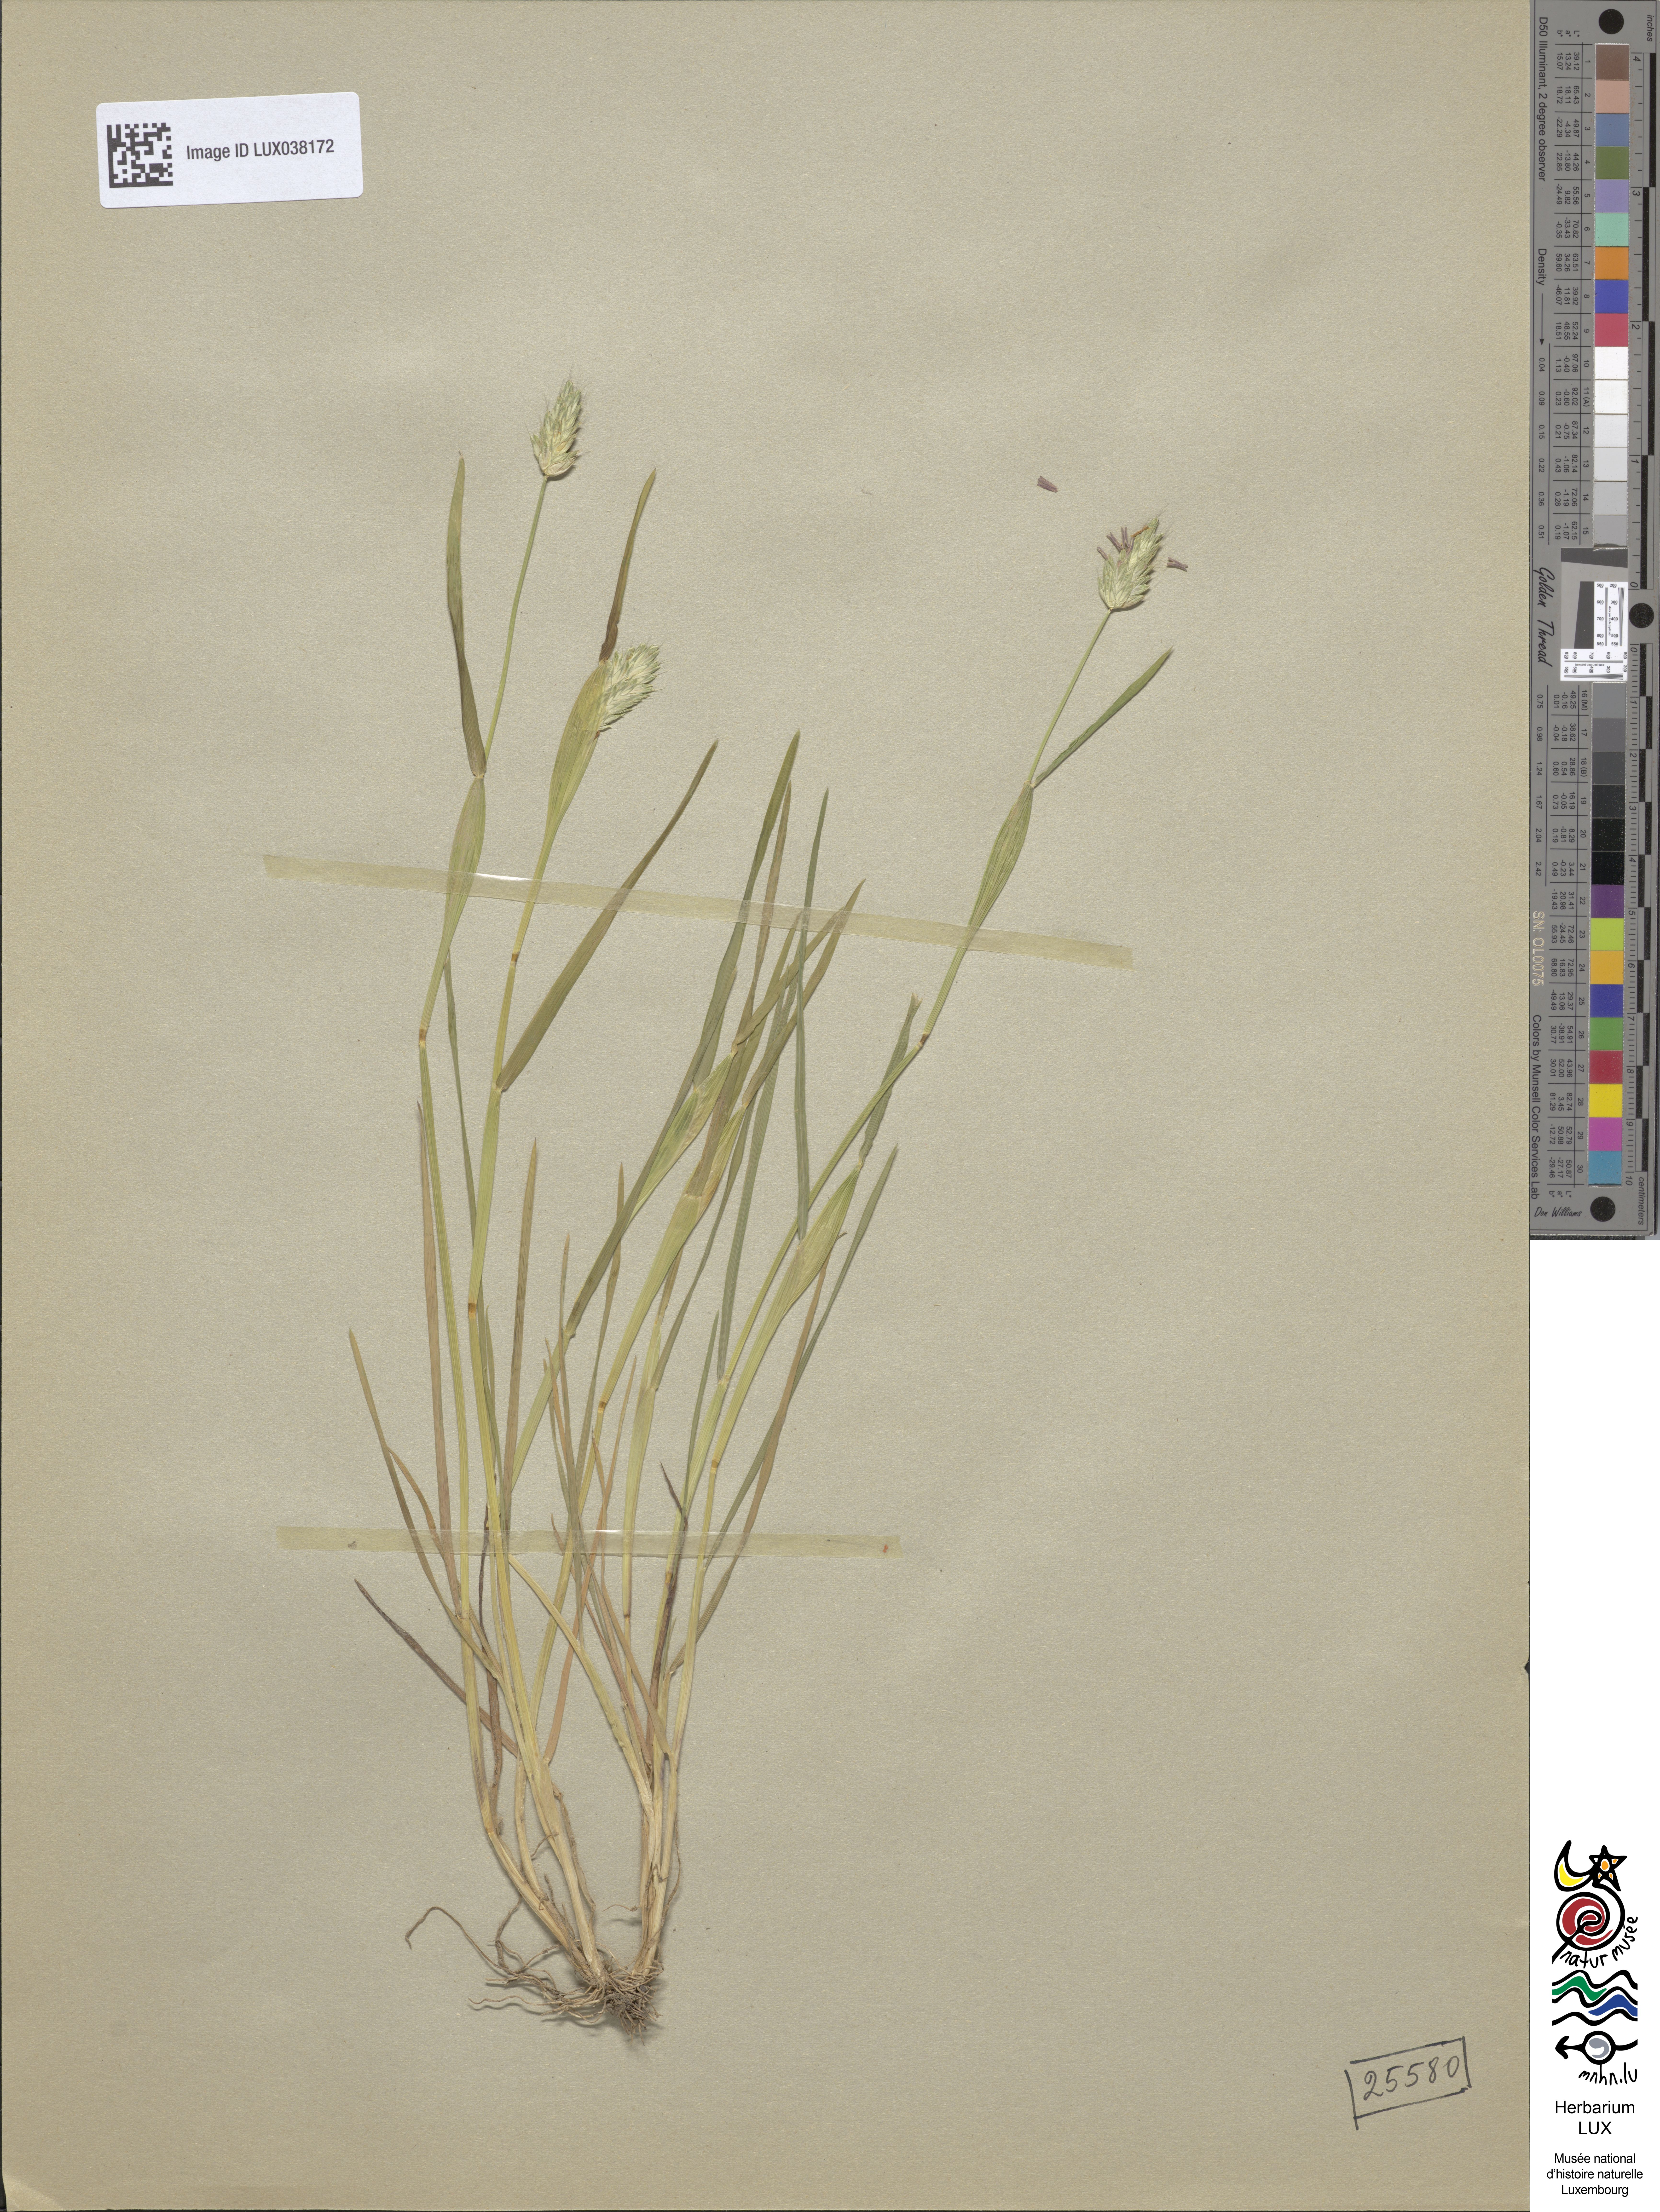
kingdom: Plantae
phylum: Tracheophyta
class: Liliopsida
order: Poales
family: Poaceae
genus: Alopecurus
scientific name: Alopecurus utriculatus
